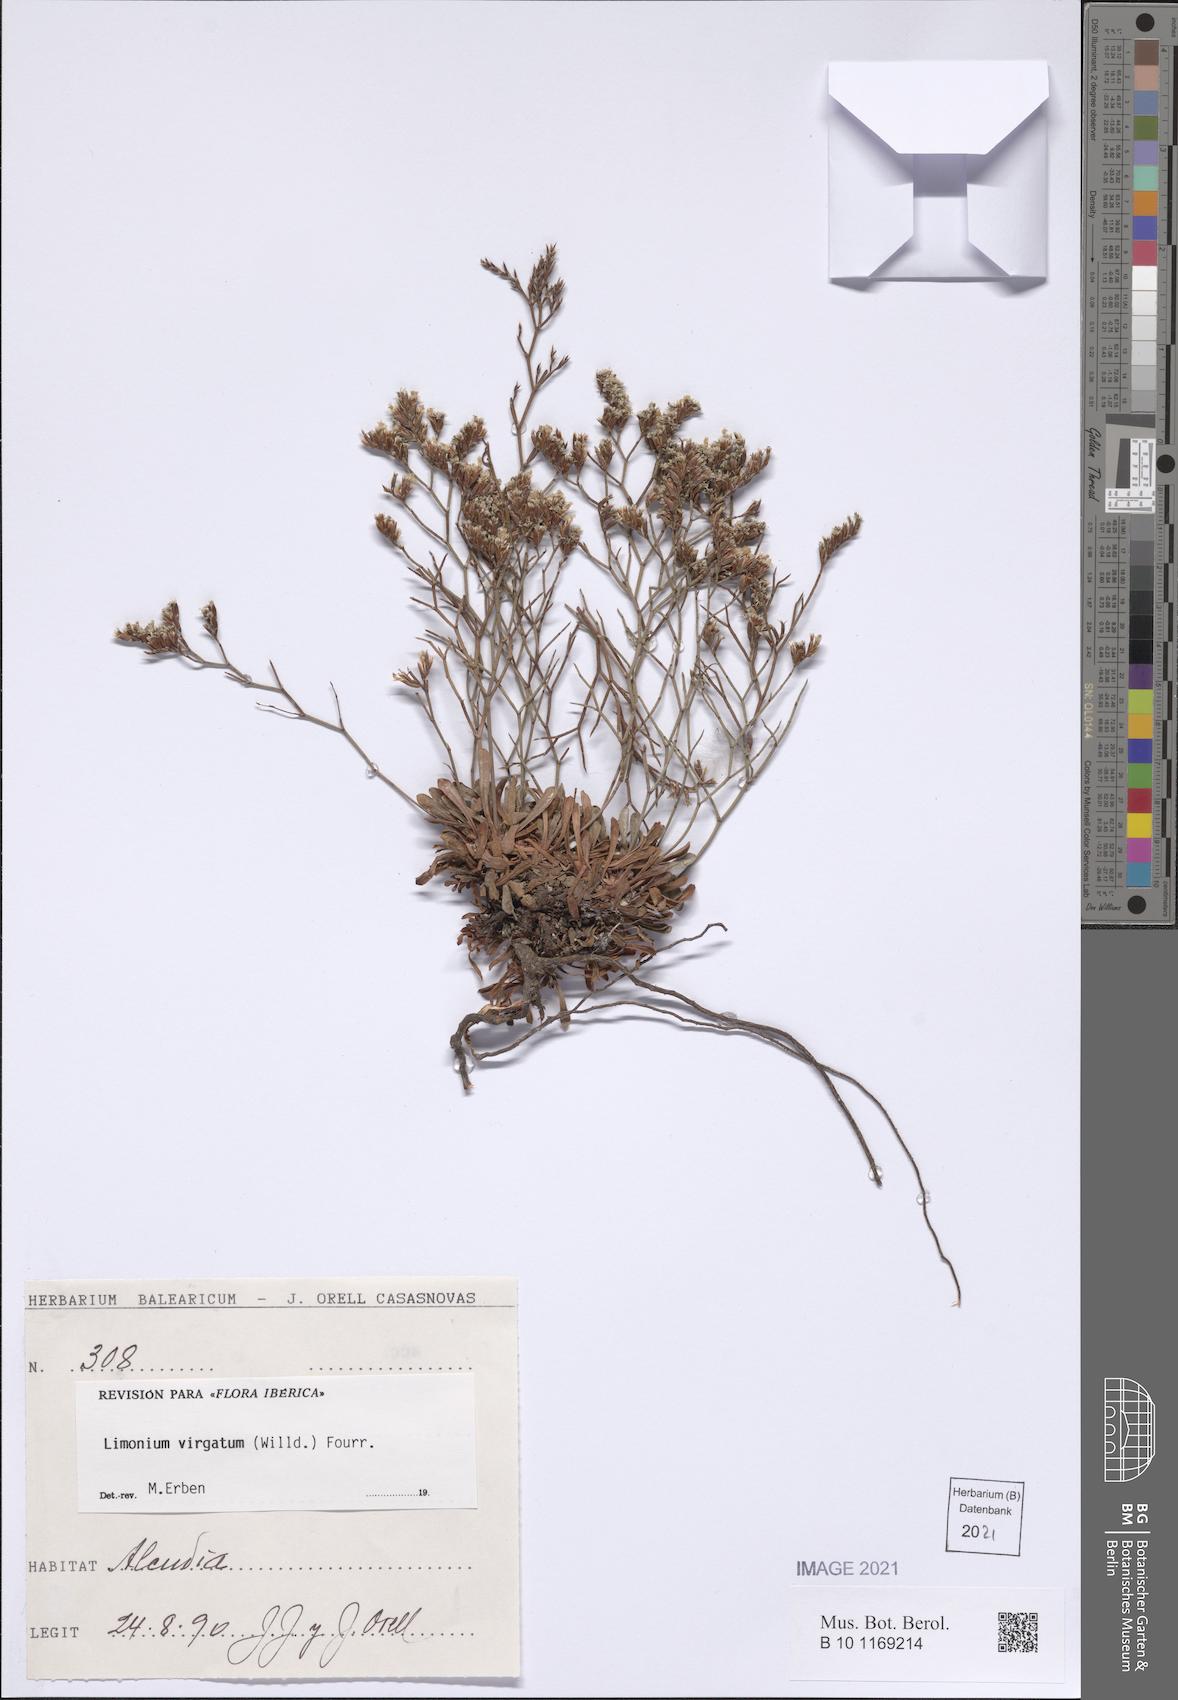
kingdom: Plantae
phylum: Tracheophyta
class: Magnoliopsida
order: Caryophyllales
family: Plumbaginaceae
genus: Limonium
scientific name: Limonium virgatum
